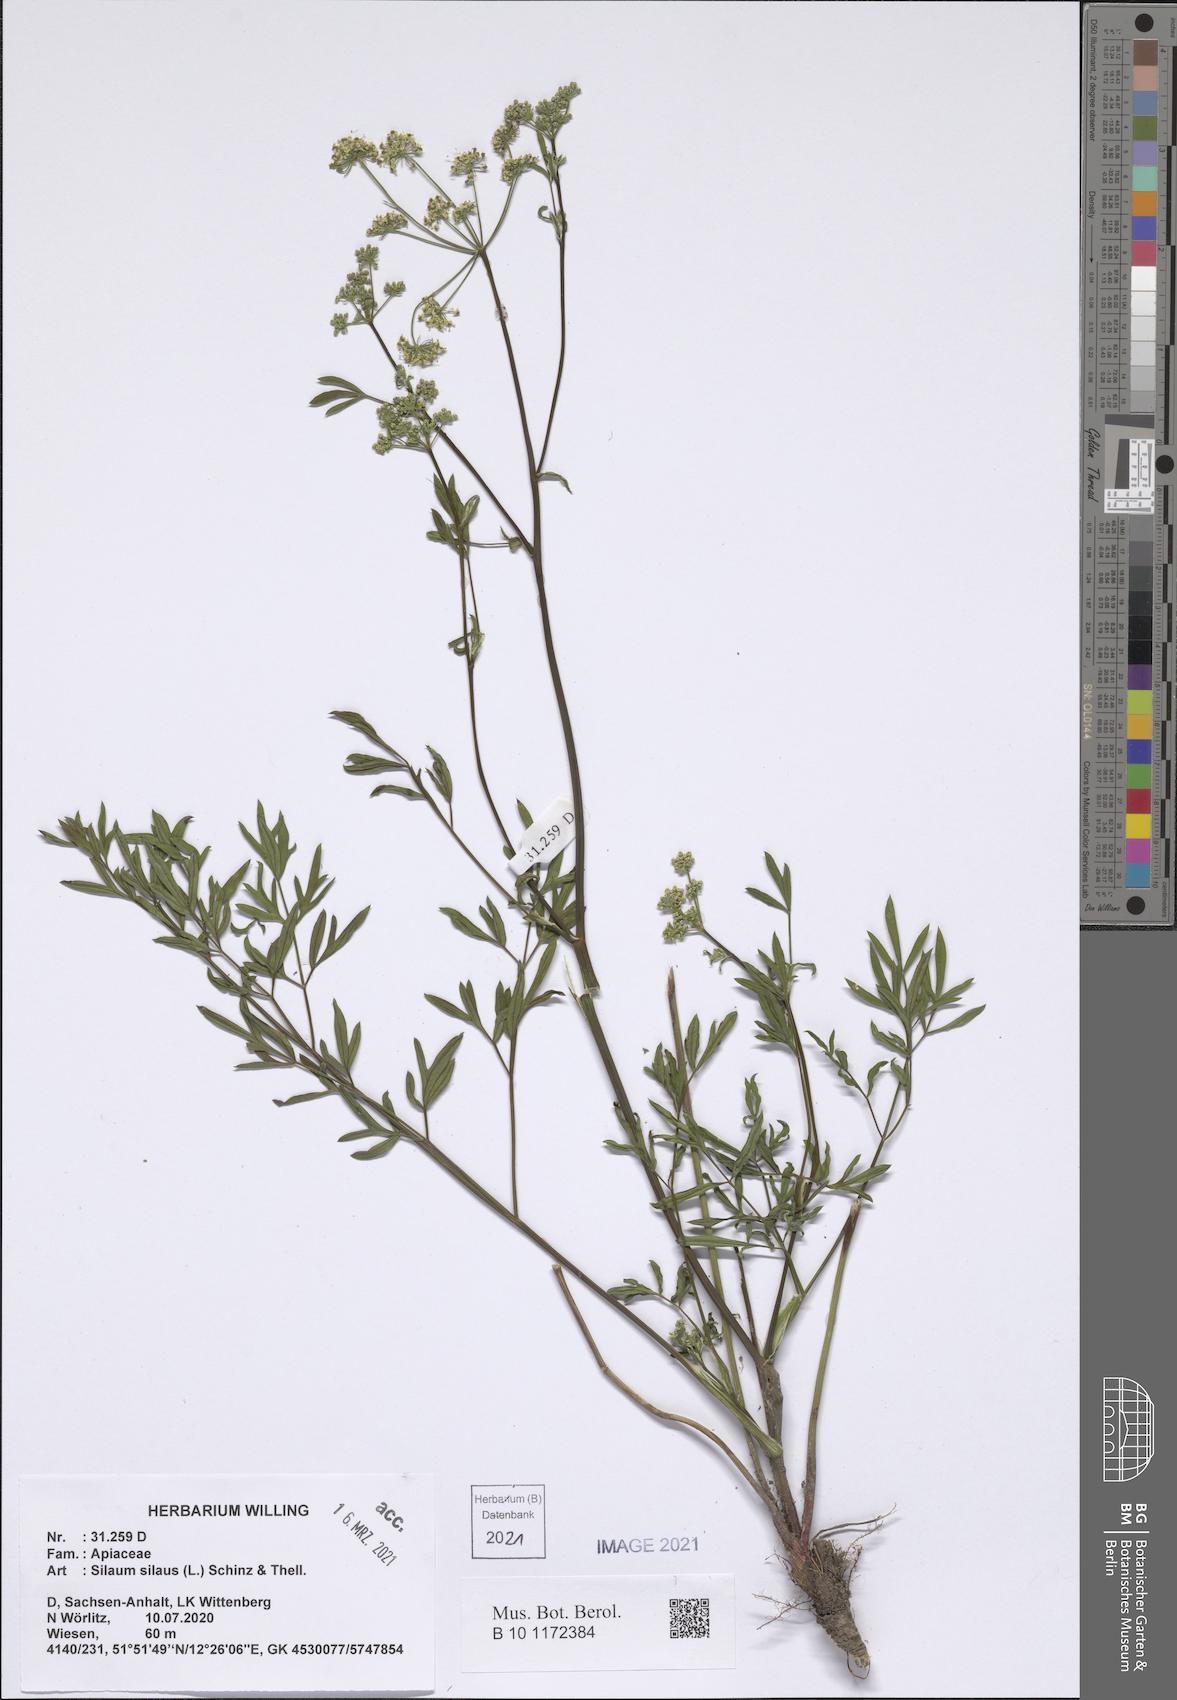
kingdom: Plantae
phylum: Tracheophyta
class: Magnoliopsida
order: Apiales
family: Apiaceae
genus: Silaum
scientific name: Silaum silaus
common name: Pepper-saxifrage
